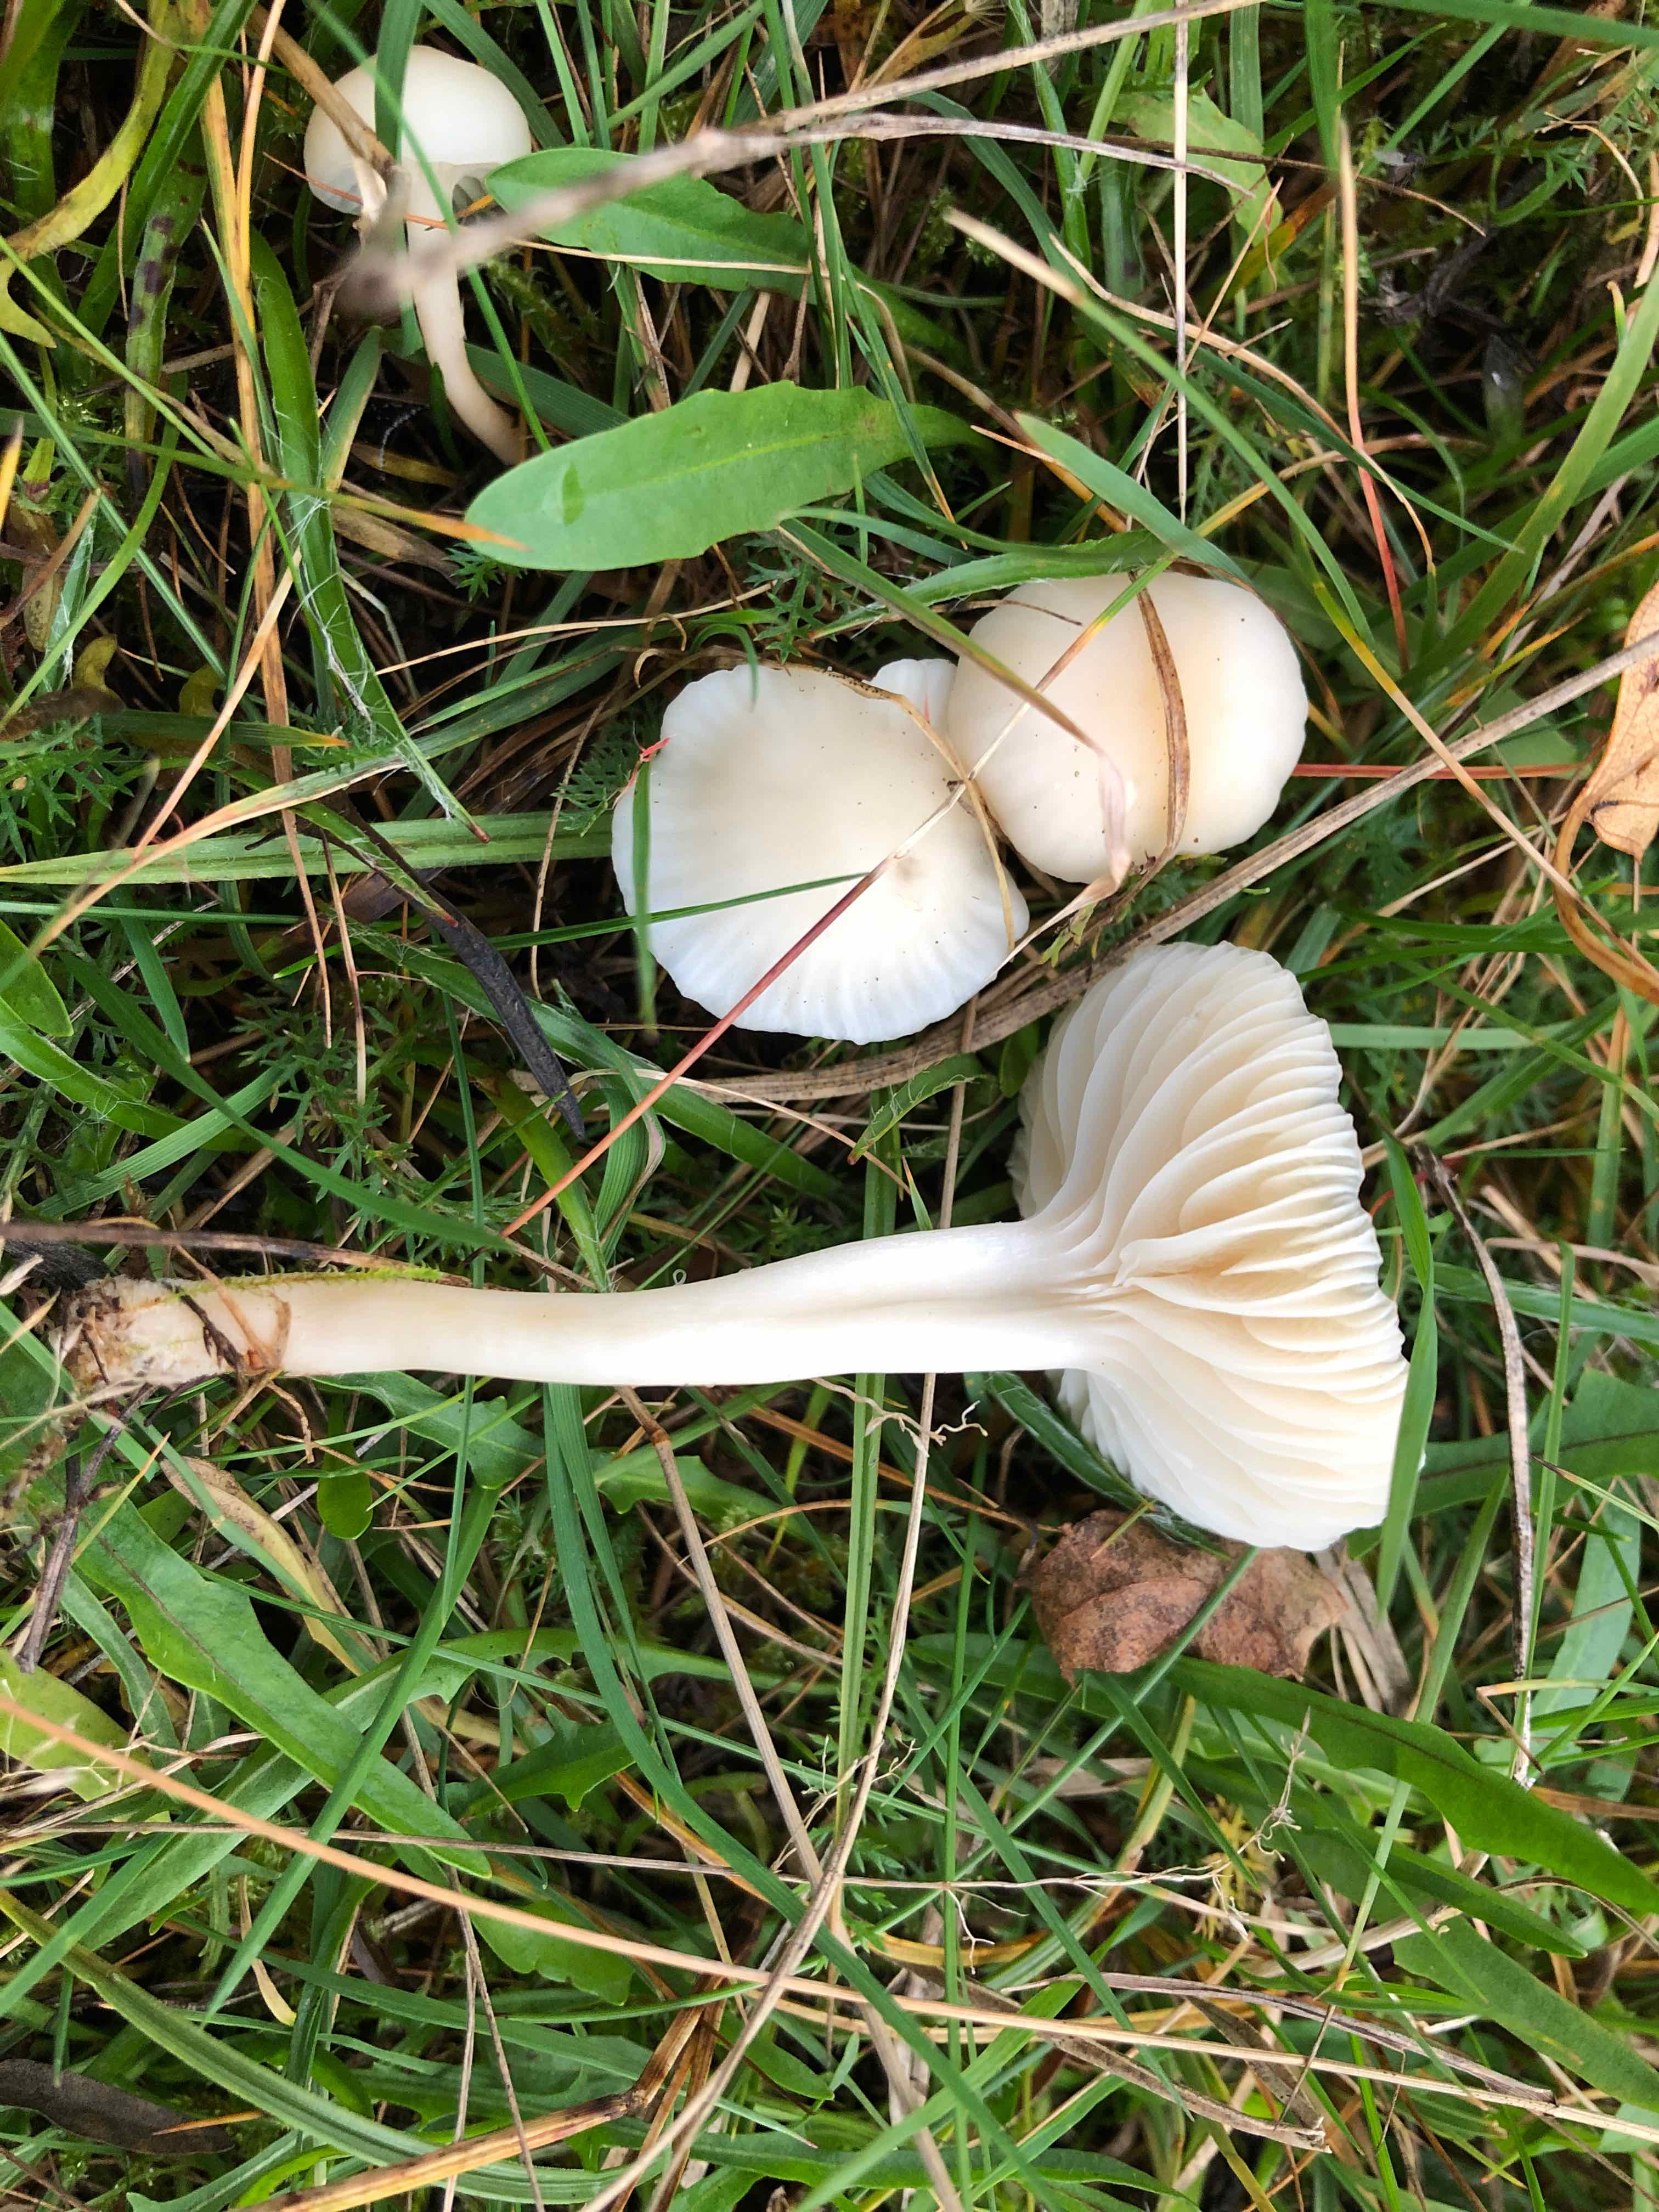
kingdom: Fungi
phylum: Basidiomycota
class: Agaricomycetes
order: Agaricales
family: Hygrophoraceae
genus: Cuphophyllus
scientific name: Cuphophyllus
